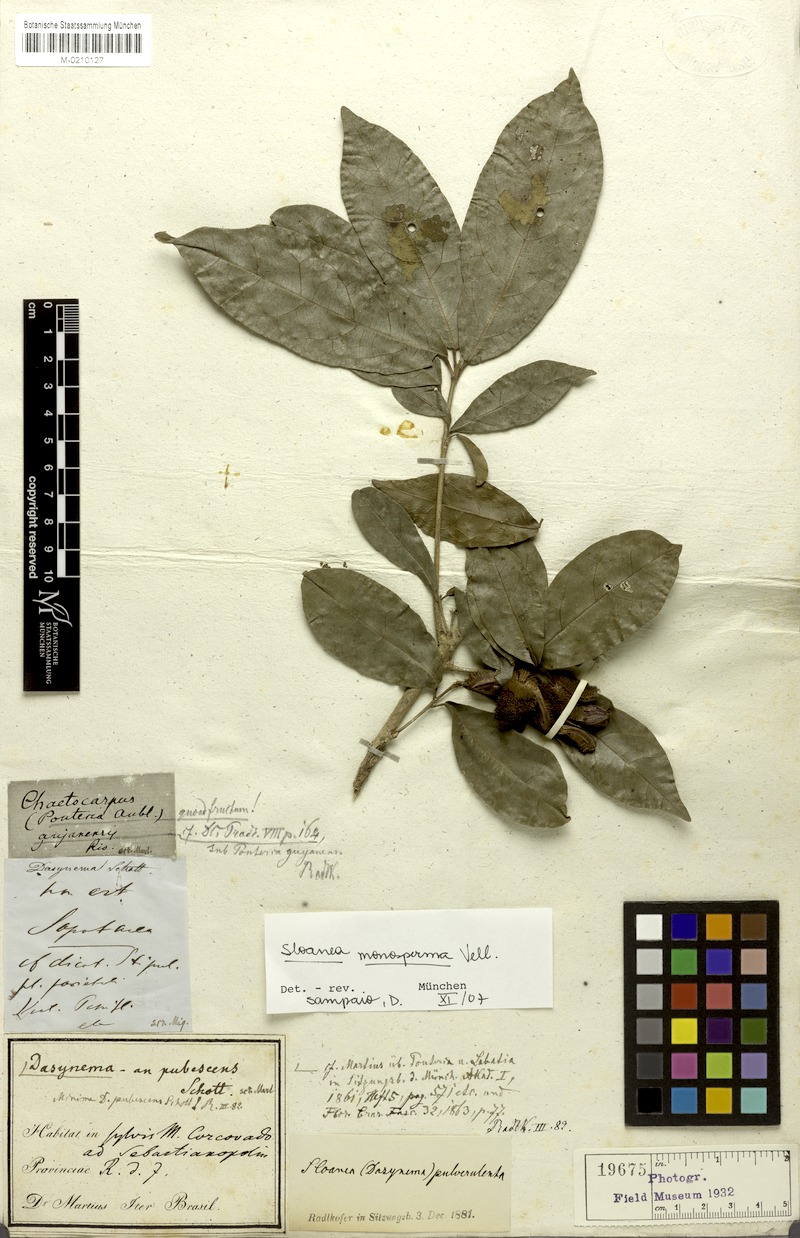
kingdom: Plantae
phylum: Tracheophyta
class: Magnoliopsida
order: Oxalidales
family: Elaeocarpaceae
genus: Sloanea
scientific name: Sloanea hirsuta
